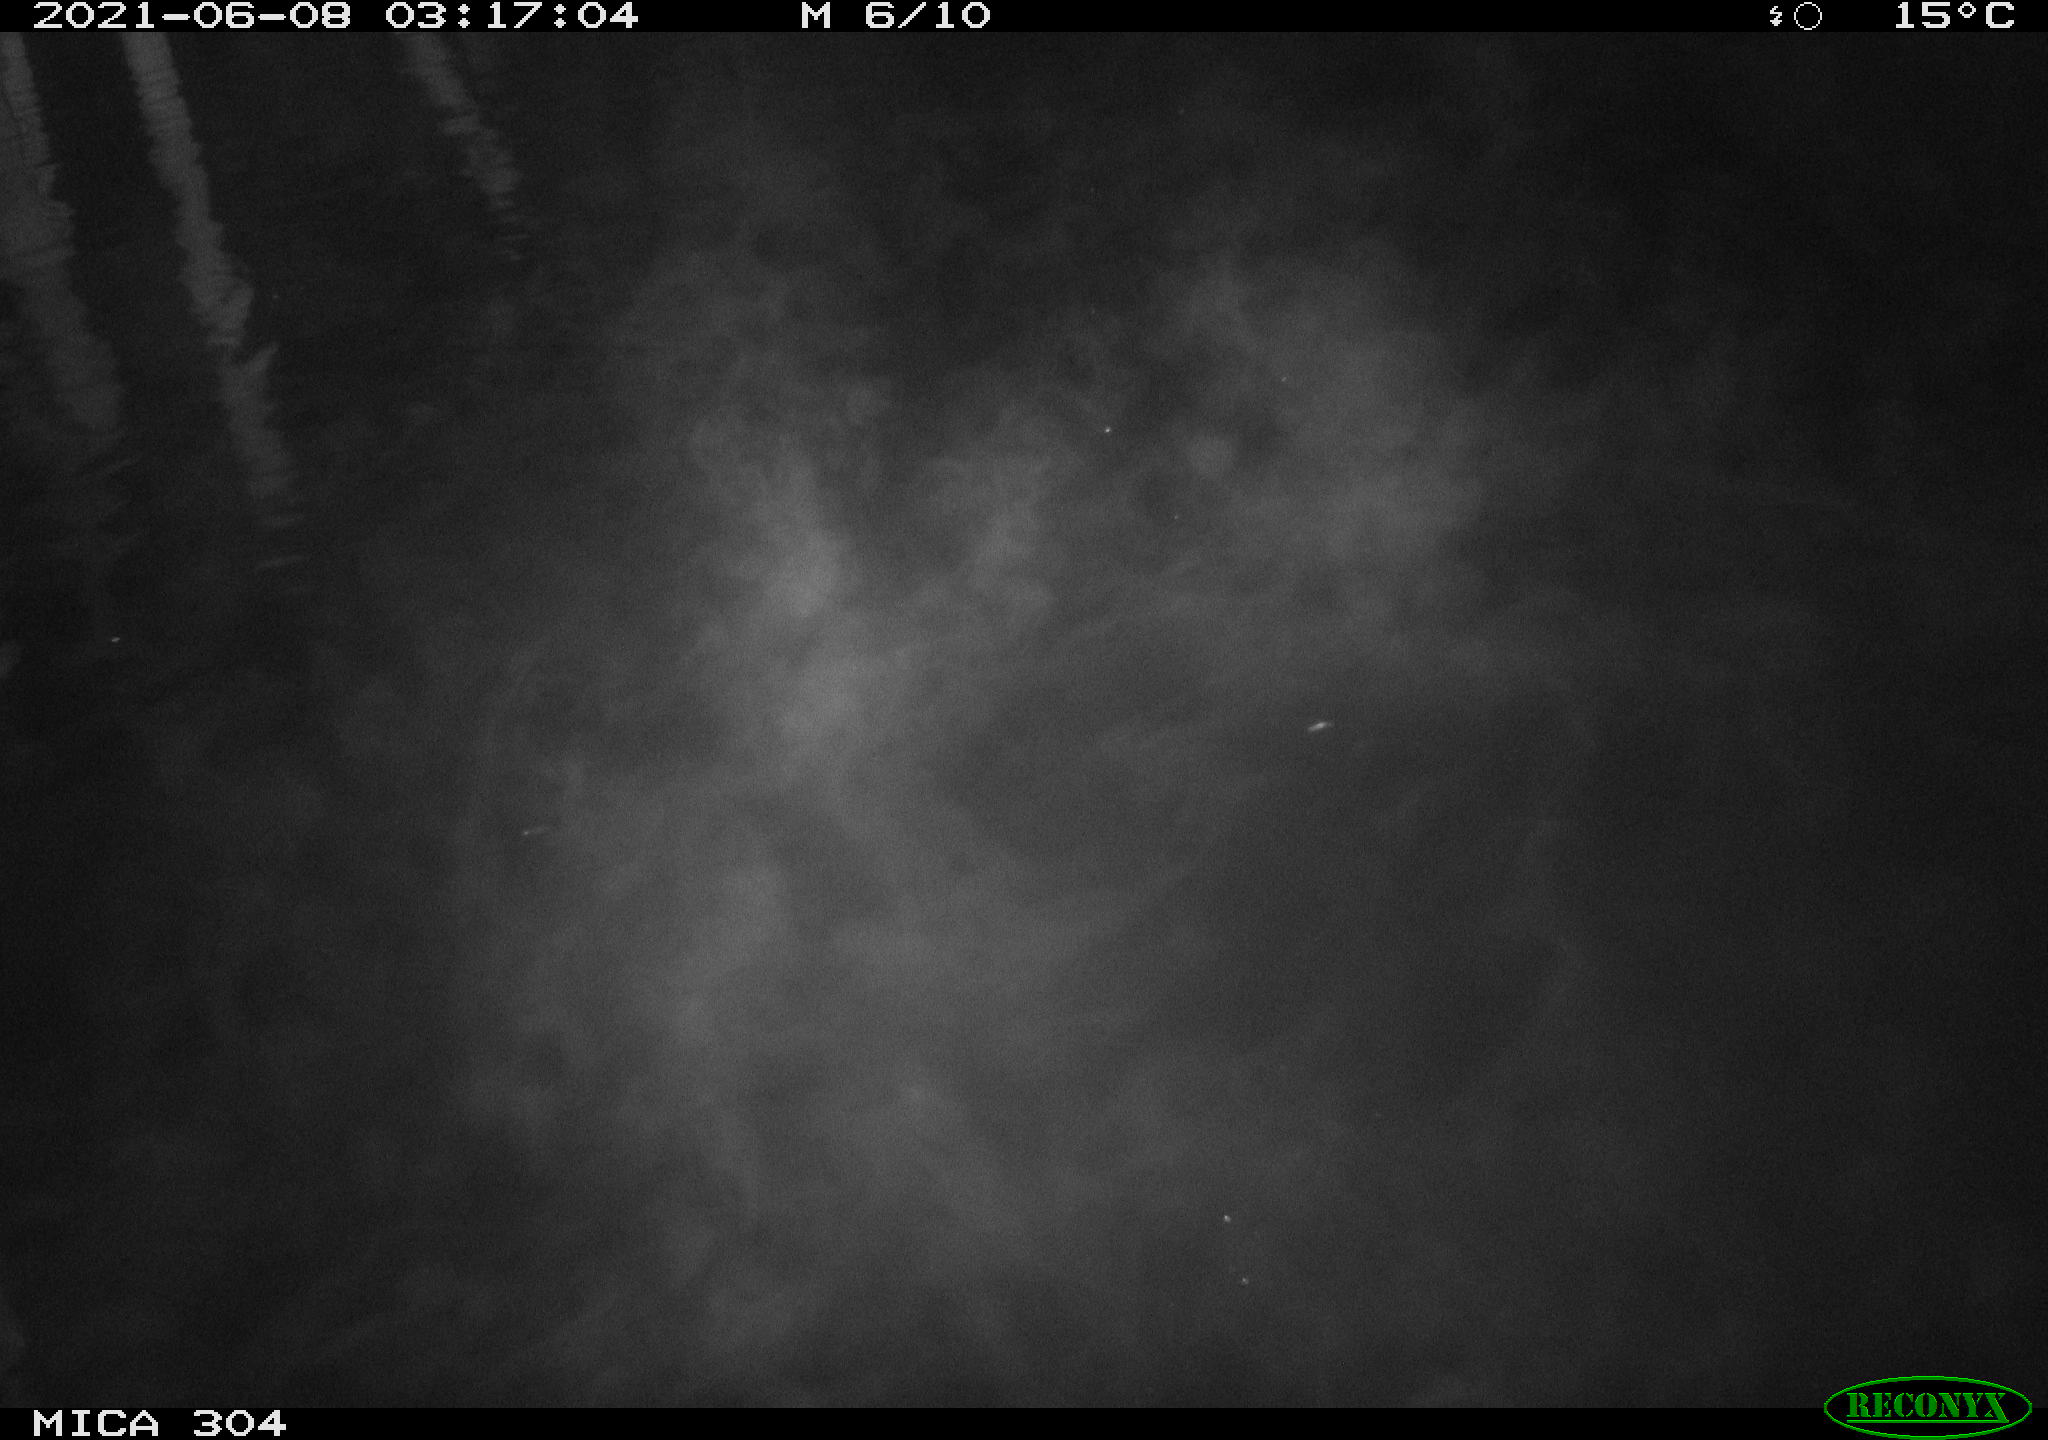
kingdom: Animalia
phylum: Chordata
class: Mammalia
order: Rodentia
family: Cricetidae
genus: Ondatra
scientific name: Ondatra zibethicus
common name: Muskrat
